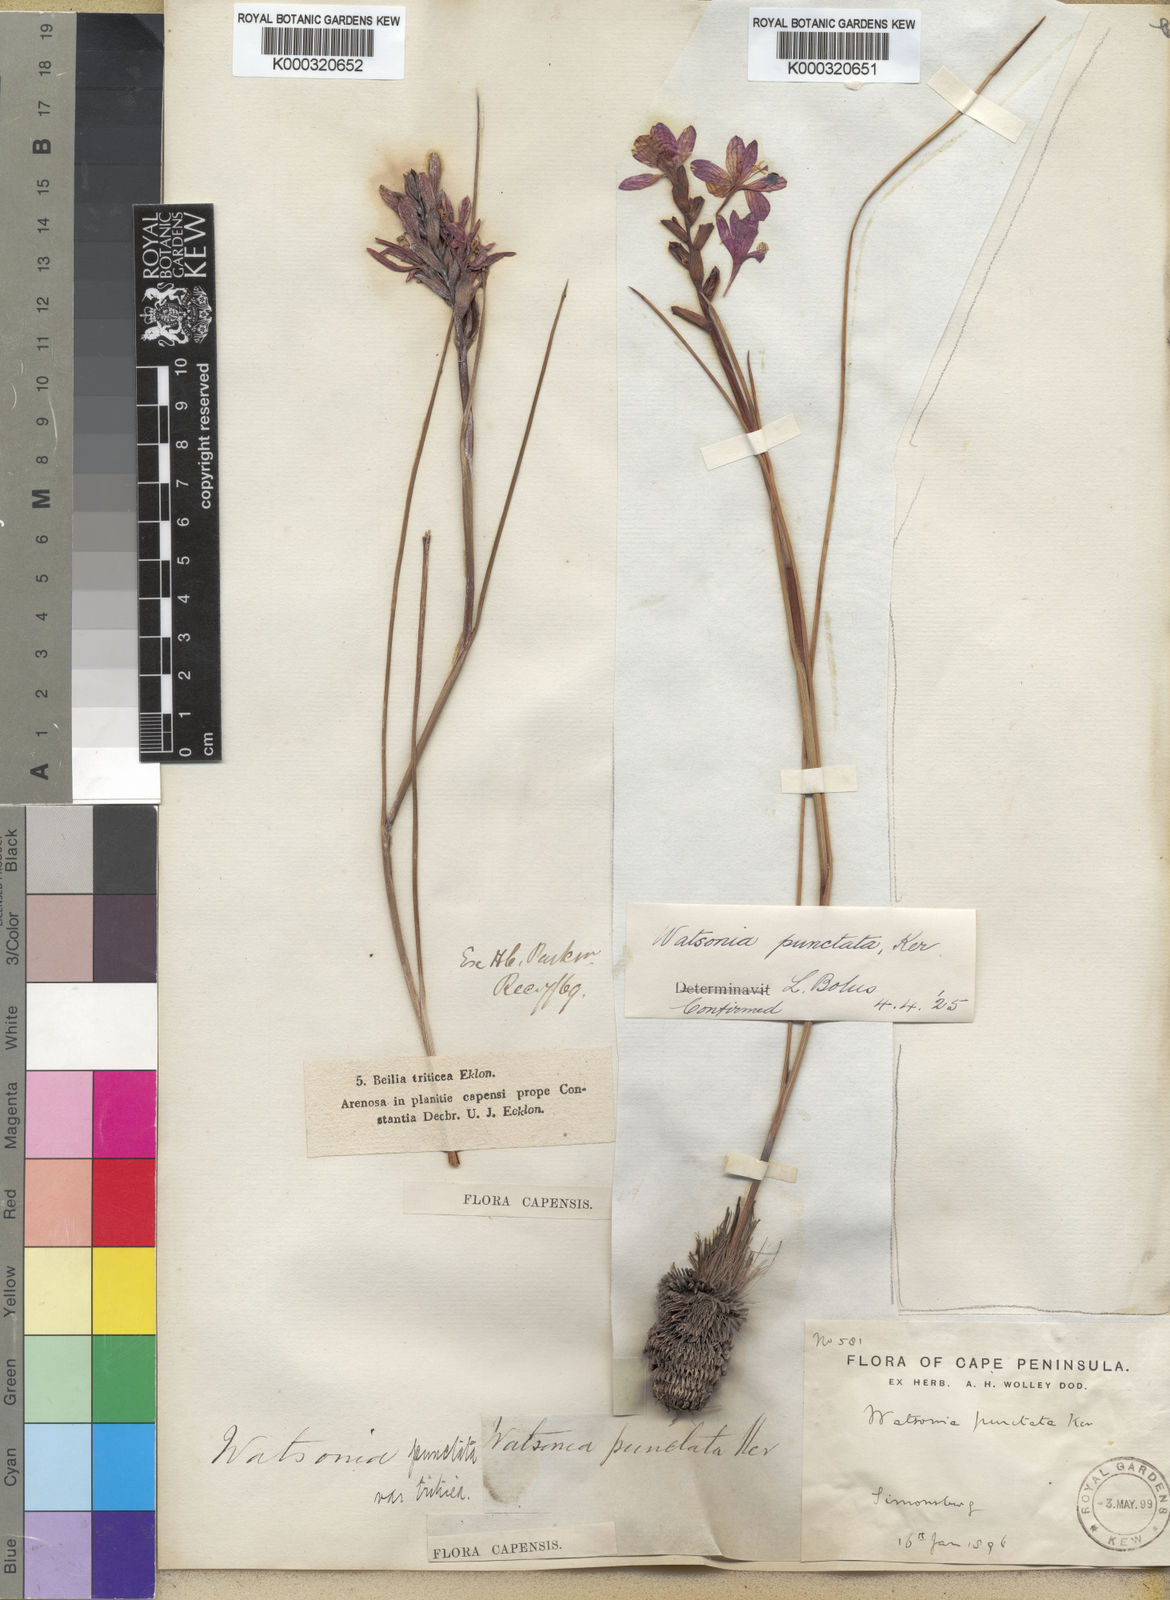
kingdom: Plantae
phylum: Tracheophyta
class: Liliopsida
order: Asparagales
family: Iridaceae
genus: Thereianthus
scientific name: Thereianthus spicatus
